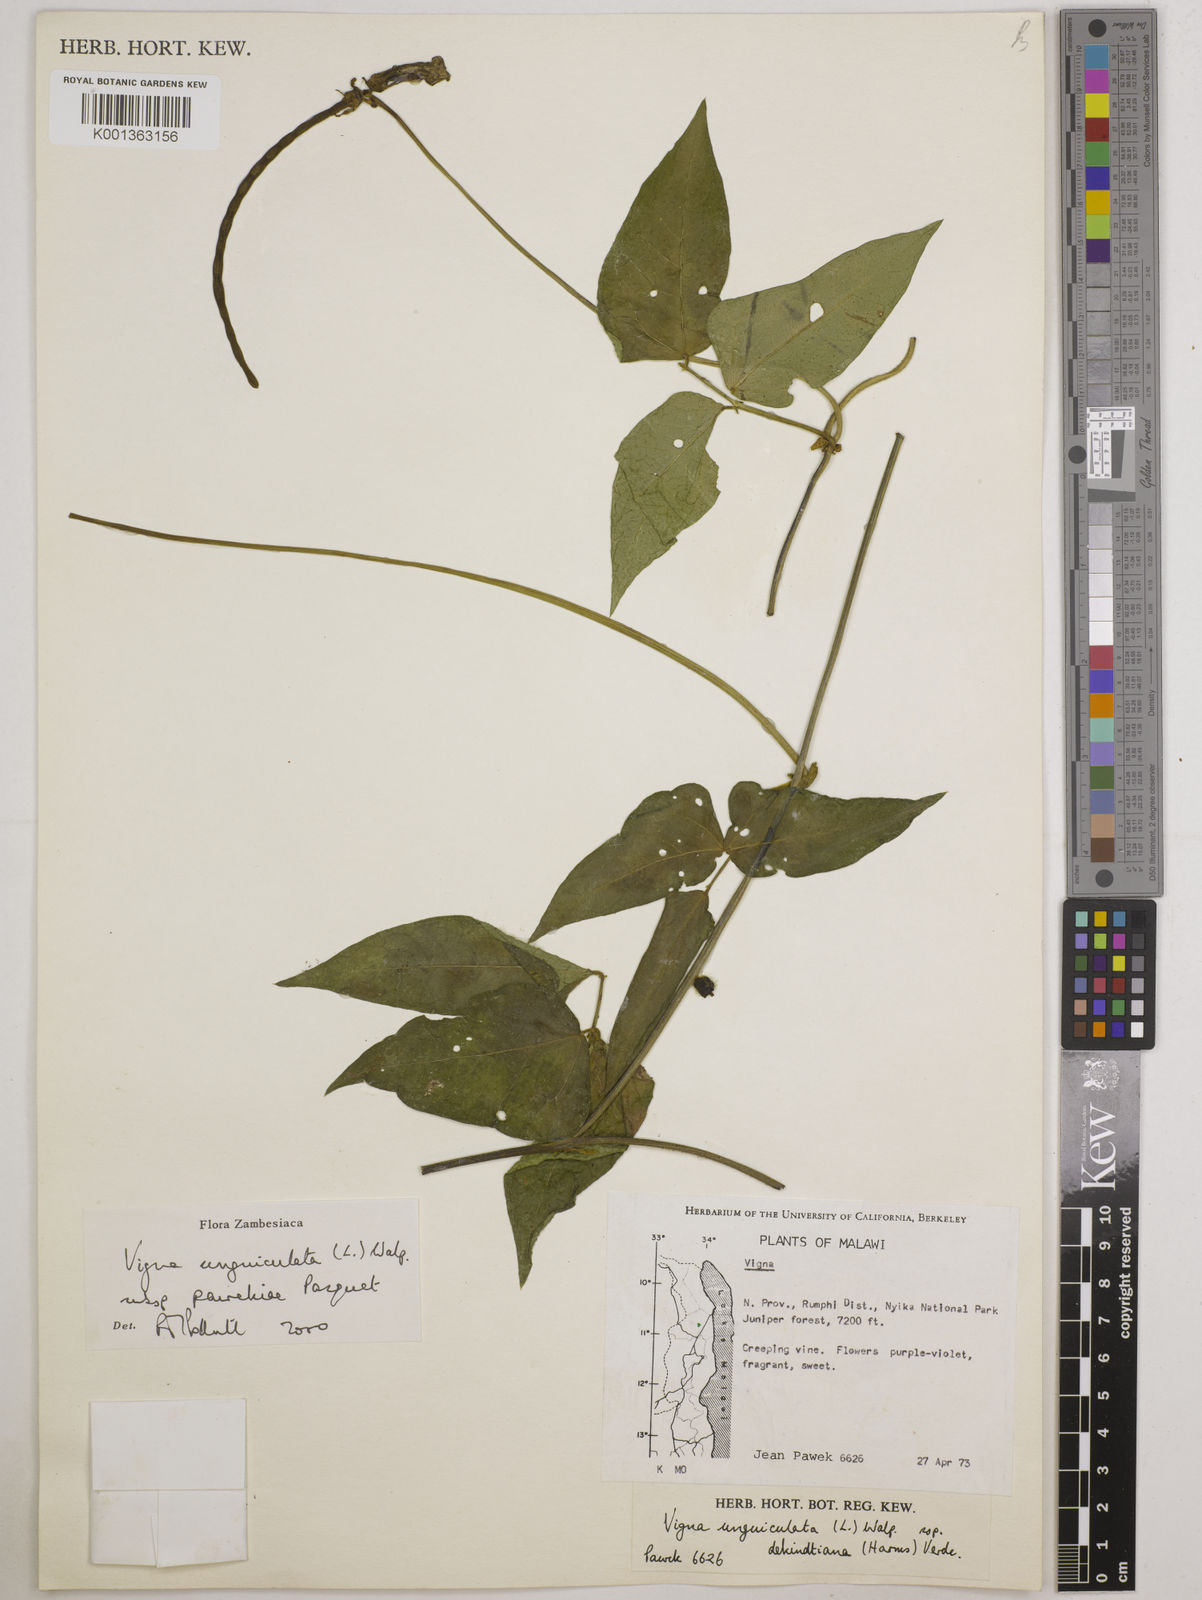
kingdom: Plantae
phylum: Tracheophyta
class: Magnoliopsida
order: Fabales
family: Fabaceae
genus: Vigna
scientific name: Vigna unguiculata
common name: Cowpea
